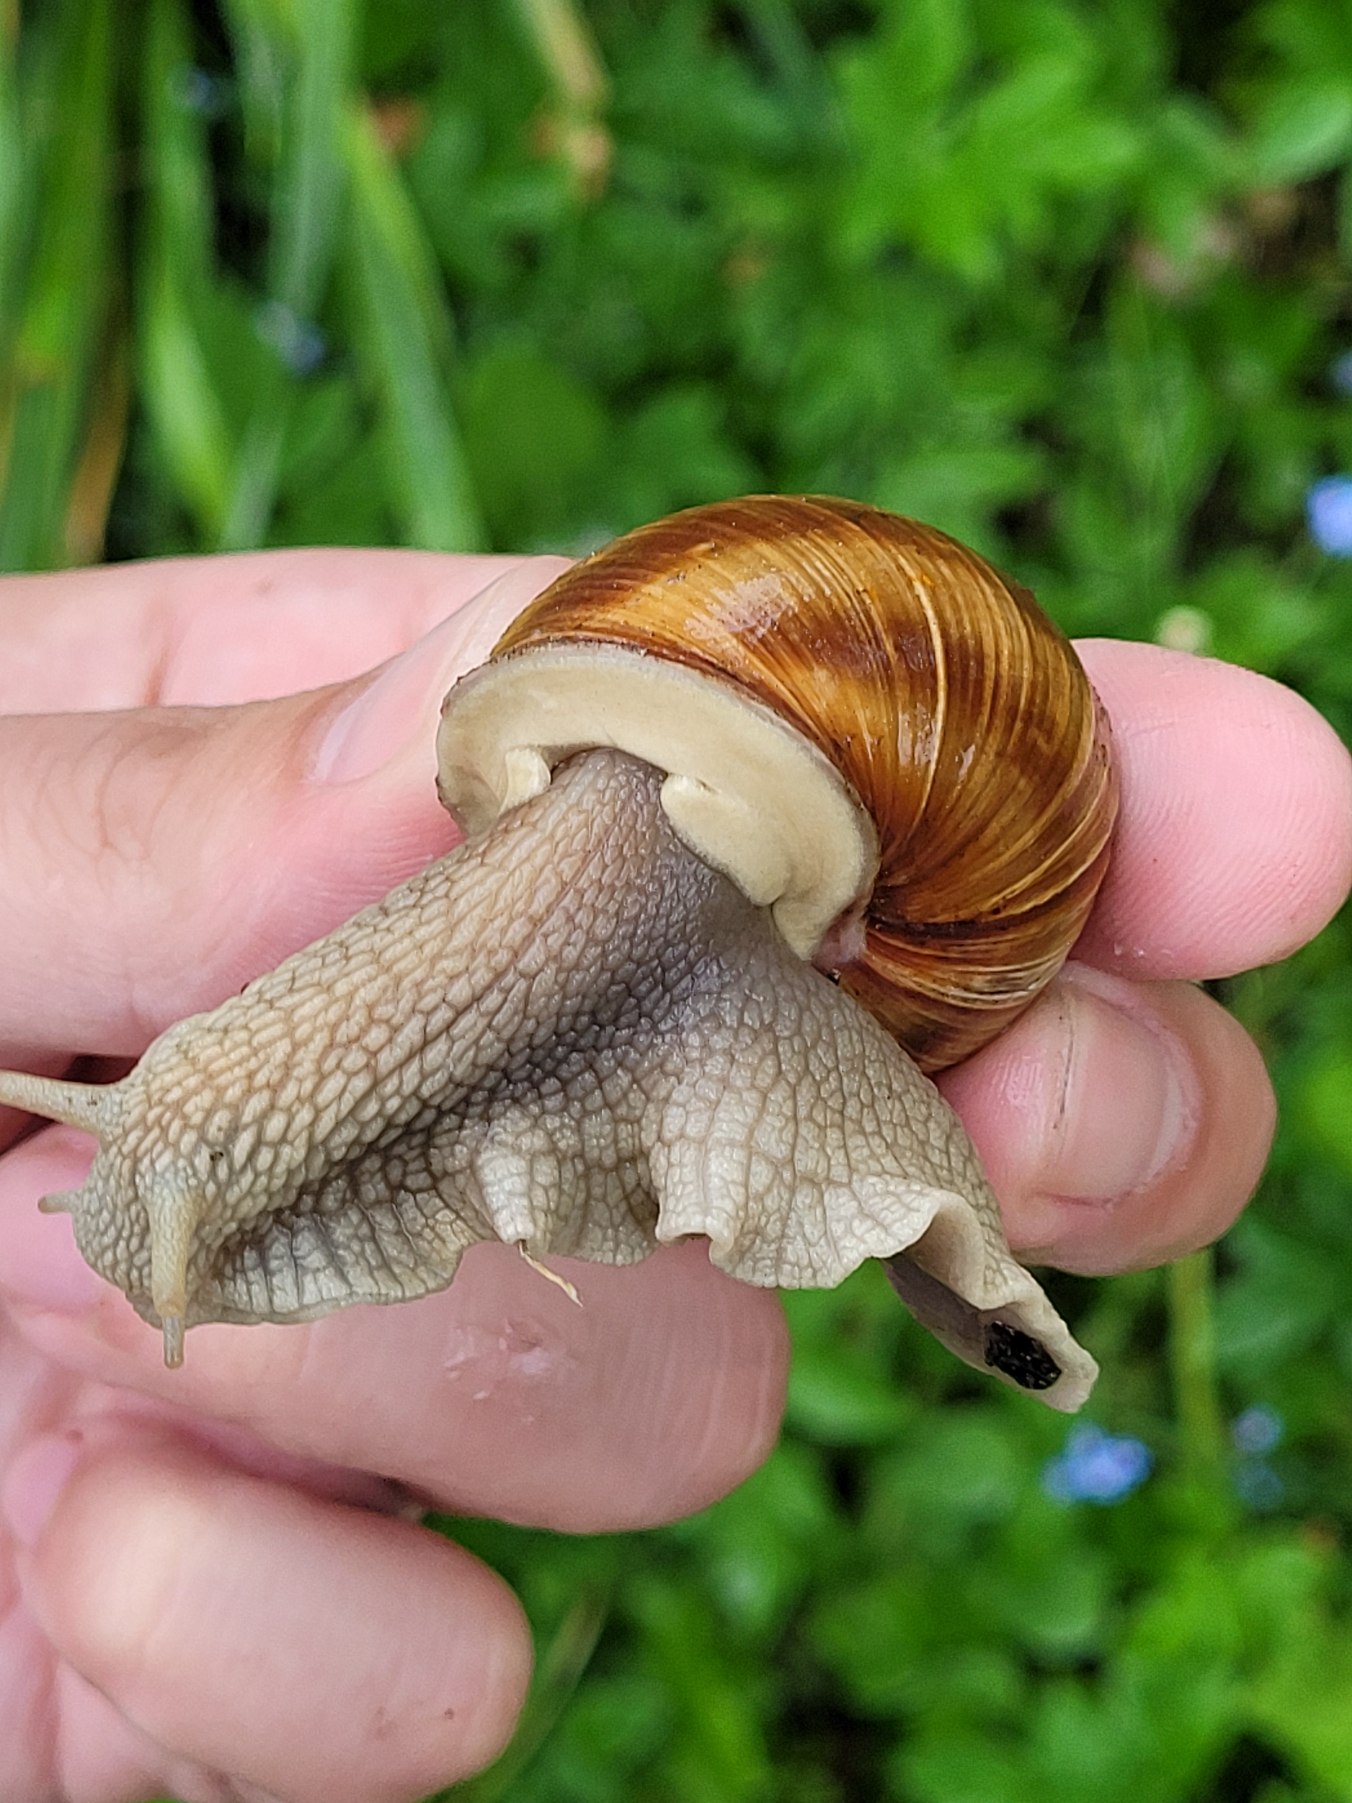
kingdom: Animalia
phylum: Mollusca
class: Gastropoda
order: Stylommatophora
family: Helicidae
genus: Helix
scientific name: Helix pomatia
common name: Vinbjergsnegl
